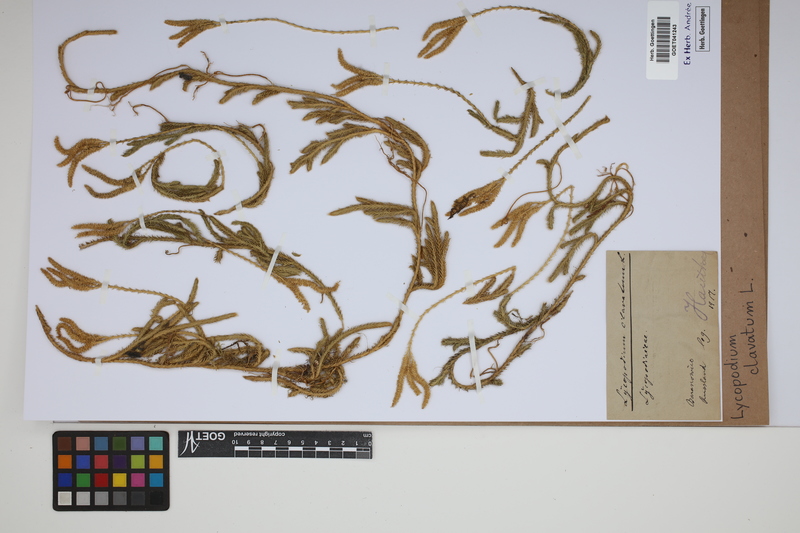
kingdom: Plantae
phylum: Tracheophyta
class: Lycopodiopsida
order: Lycopodiales
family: Lycopodiaceae
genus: Lycopodium
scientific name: Lycopodium clavatum
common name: Stag's-horn clubmoss
